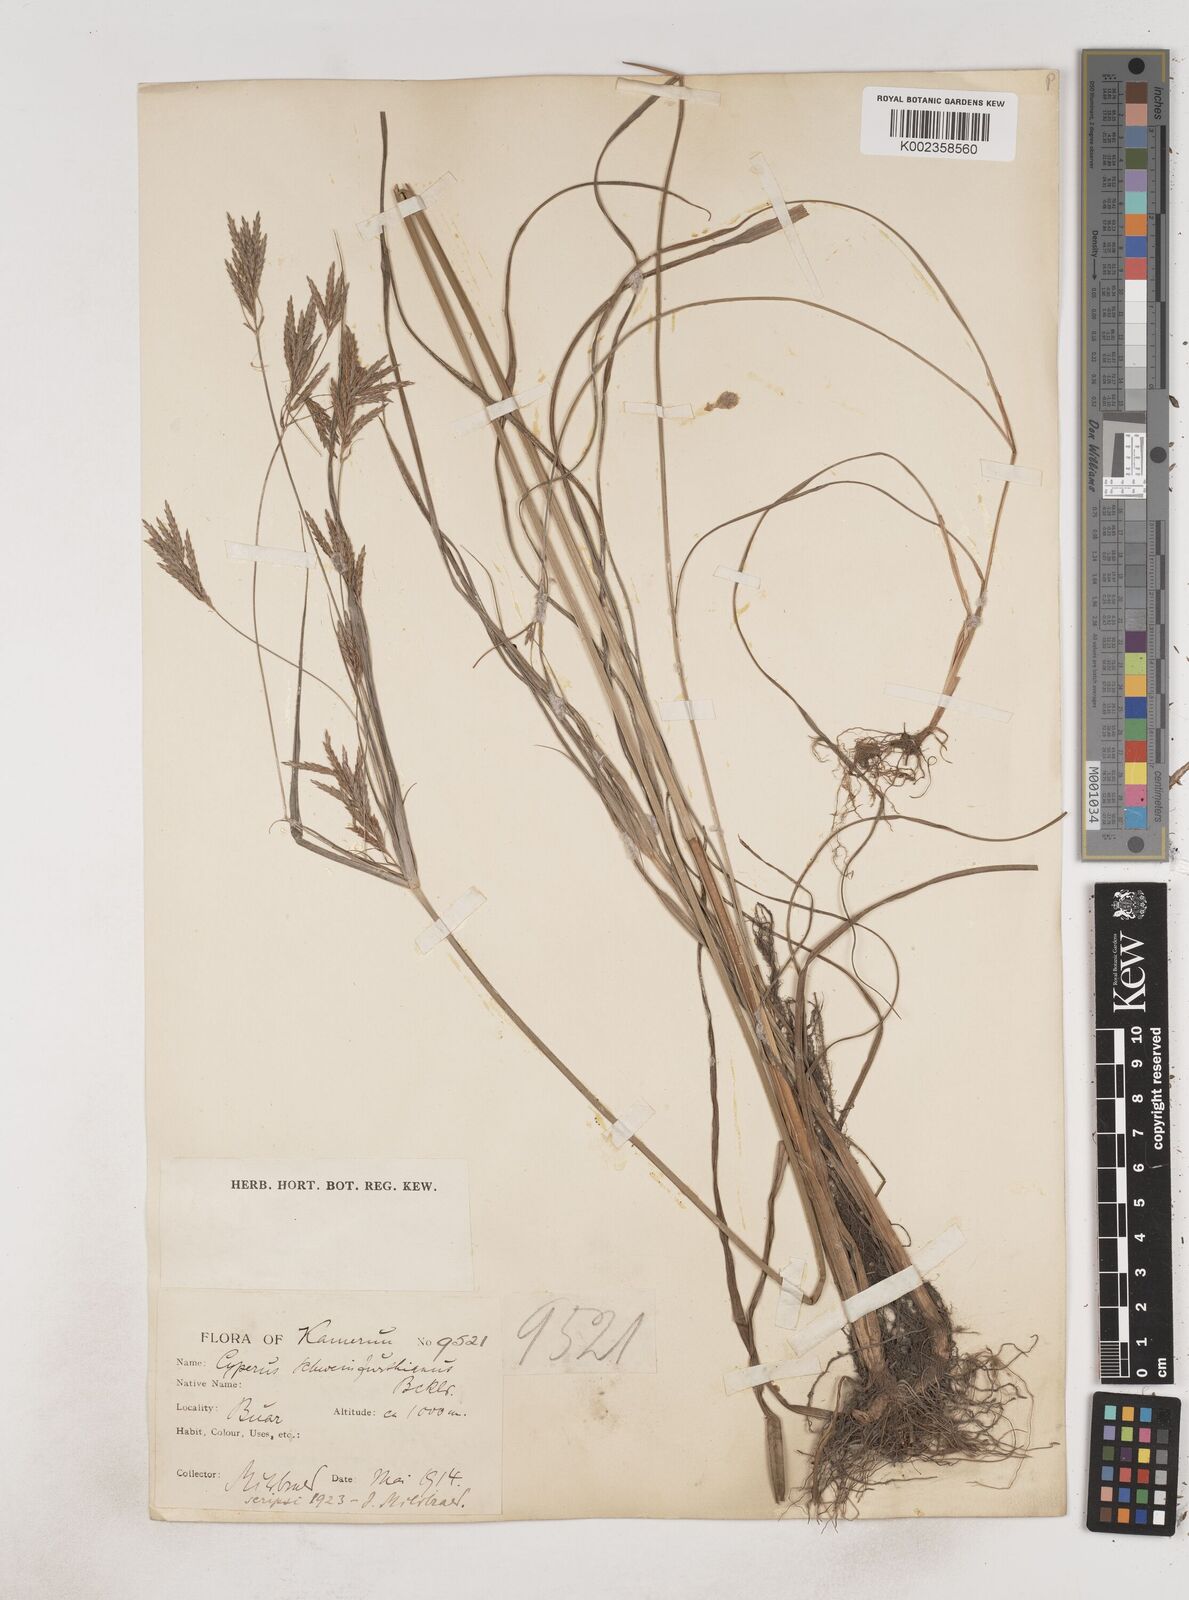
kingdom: Plantae
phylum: Tracheophyta
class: Liliopsida
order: Poales
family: Cyperaceae
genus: Cyperus
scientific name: Cyperus tenuiculmis
